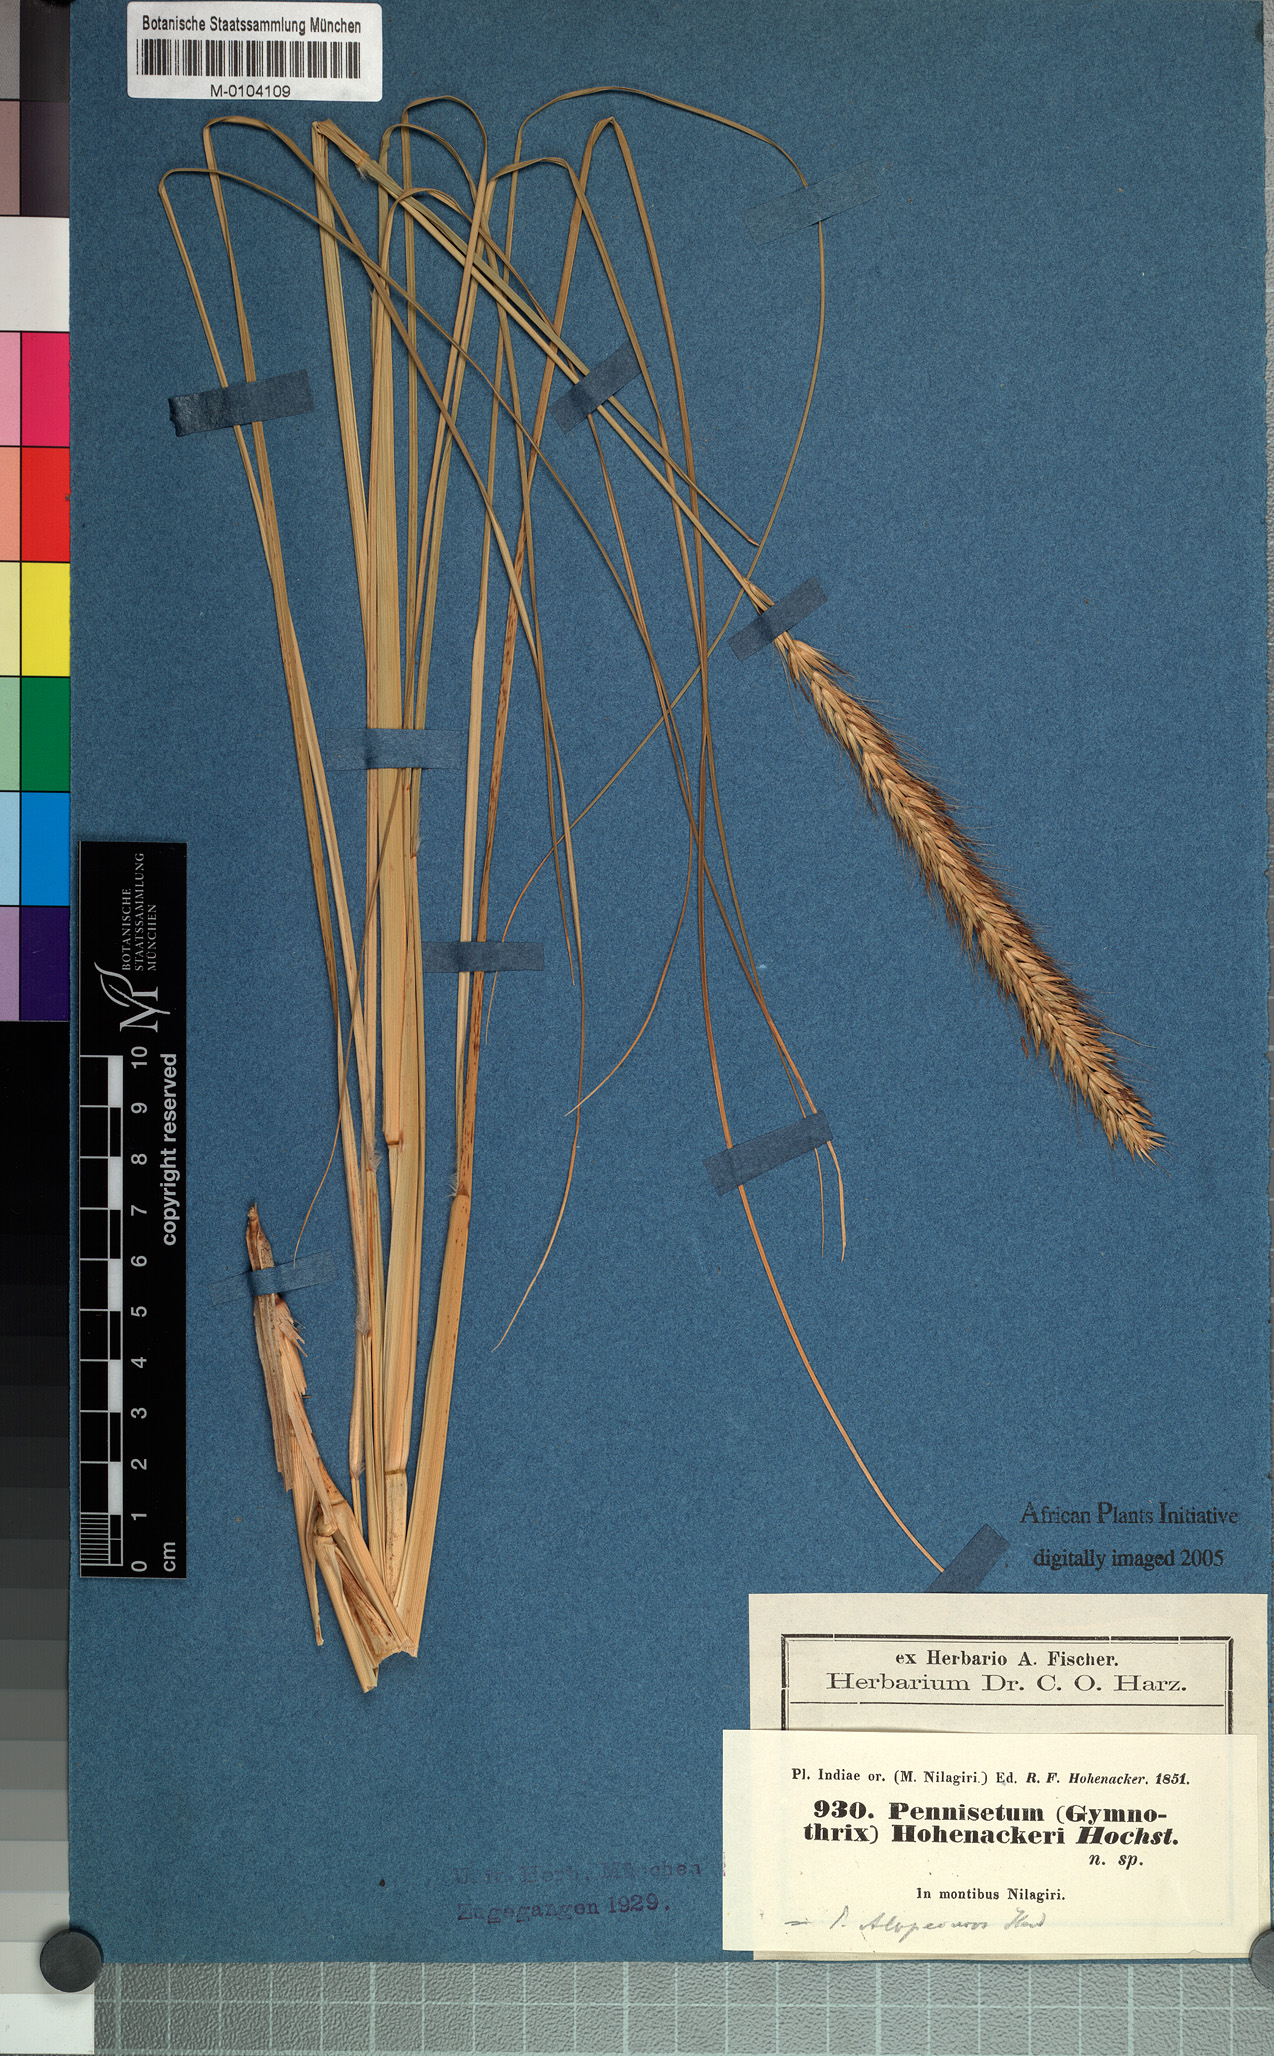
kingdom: Plantae
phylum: Tracheophyta
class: Liliopsida
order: Poales
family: Poaceae
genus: Cenchrus
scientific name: Cenchrus hohenackeri
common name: Moya grass
